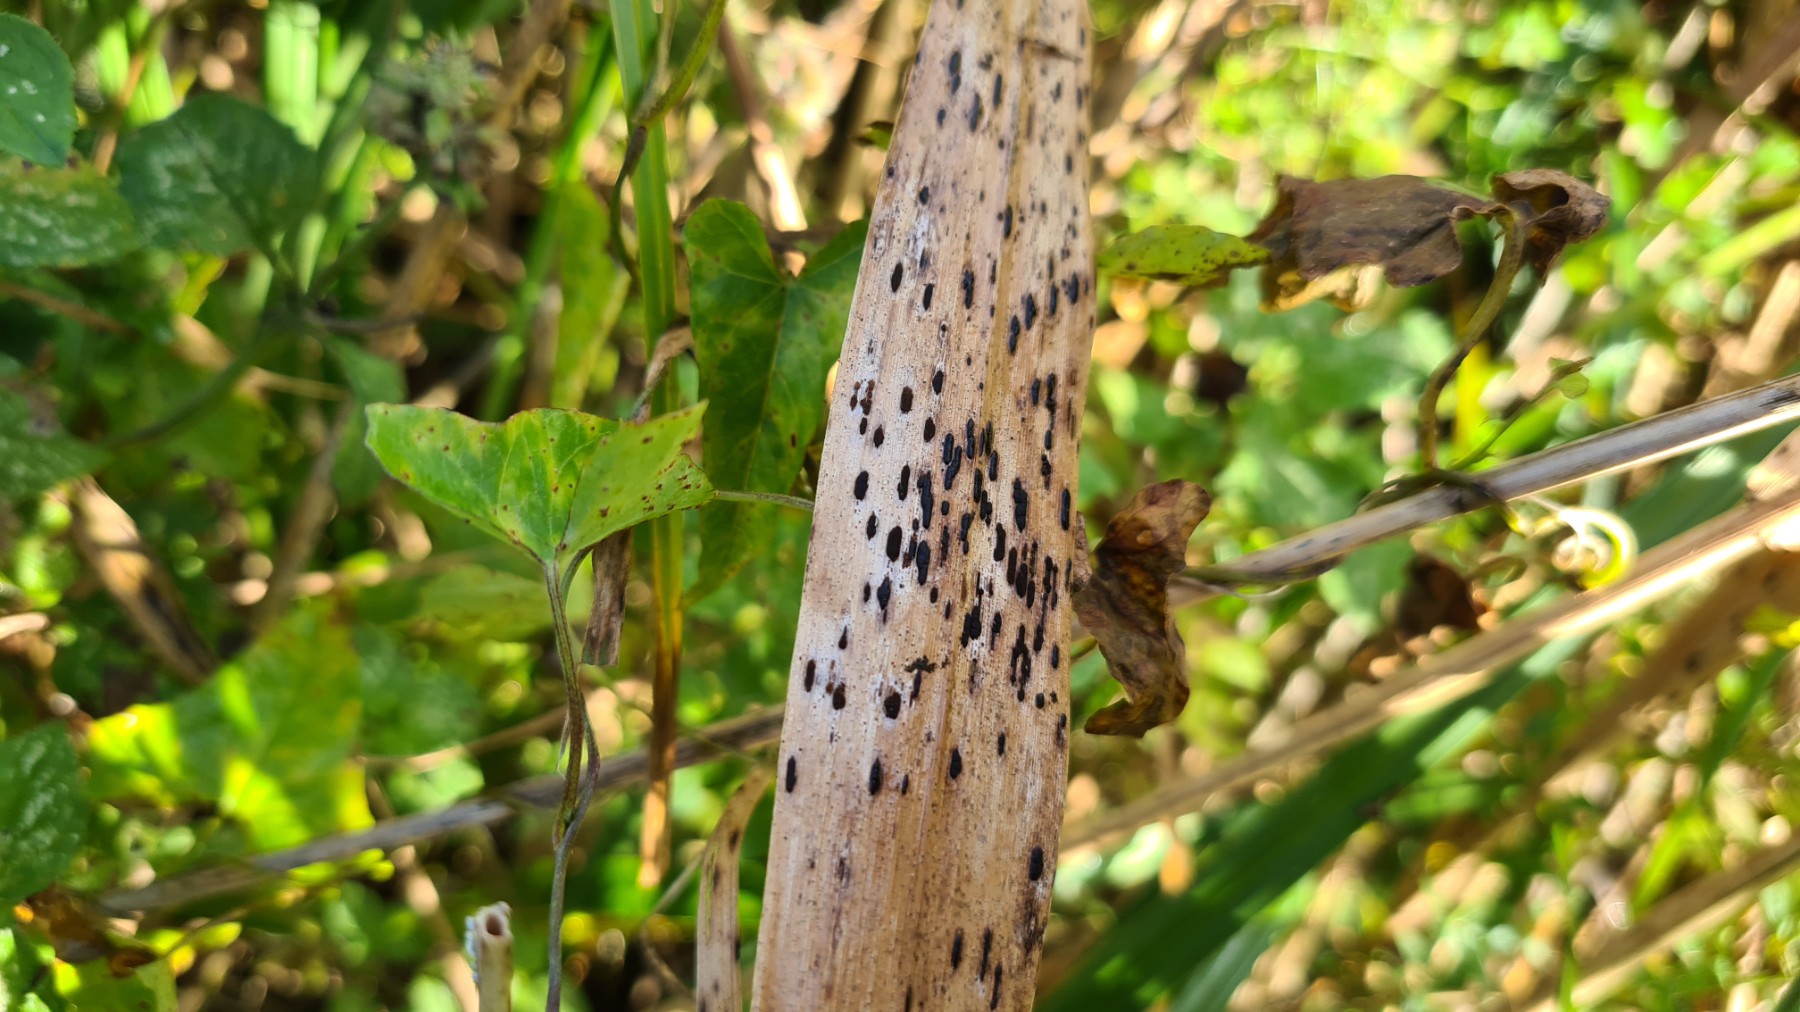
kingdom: Fungi
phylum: Basidiomycota
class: Pucciniomycetes
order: Pucciniales
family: Pucciniaceae
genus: Puccinia
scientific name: Puccinia phragmitis
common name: tagrør-tvecellerust
